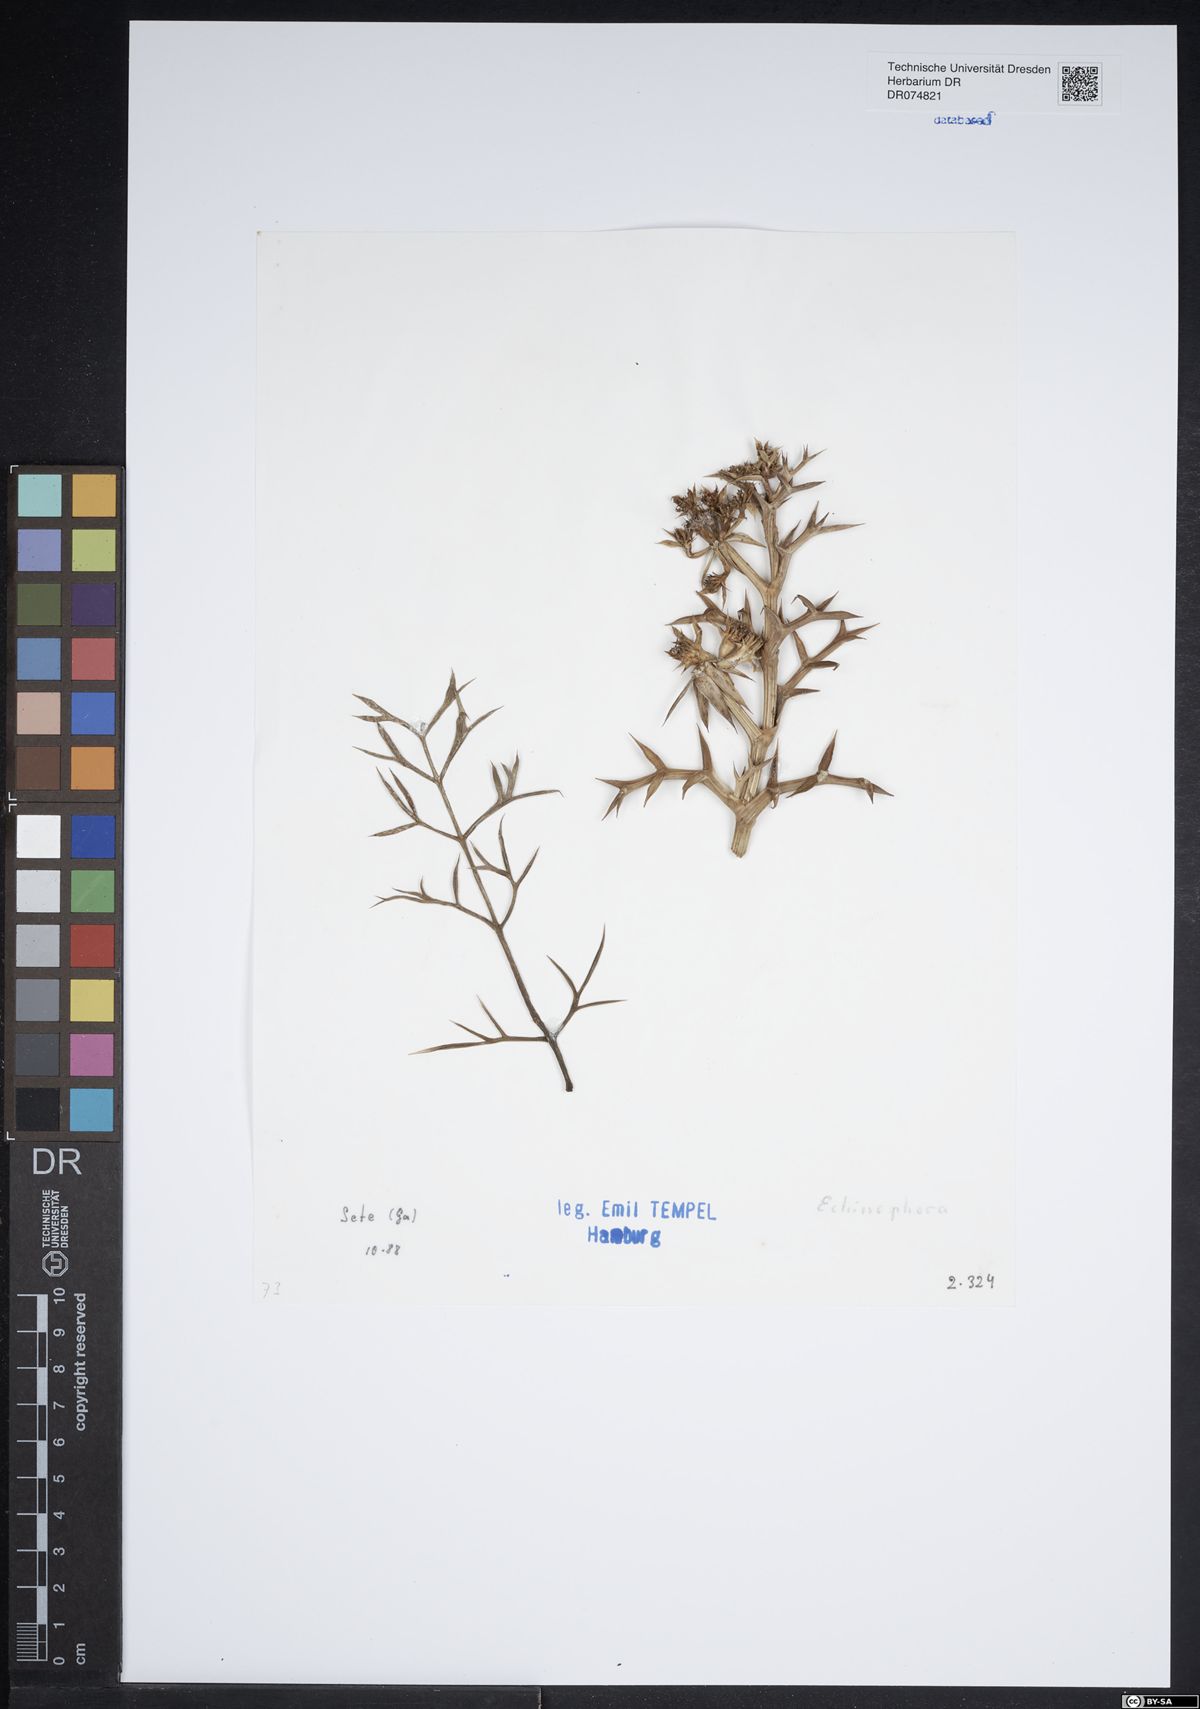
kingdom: Plantae
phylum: Tracheophyta
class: Magnoliopsida
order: Apiales
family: Apiaceae
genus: Echinophora
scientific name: Echinophora
